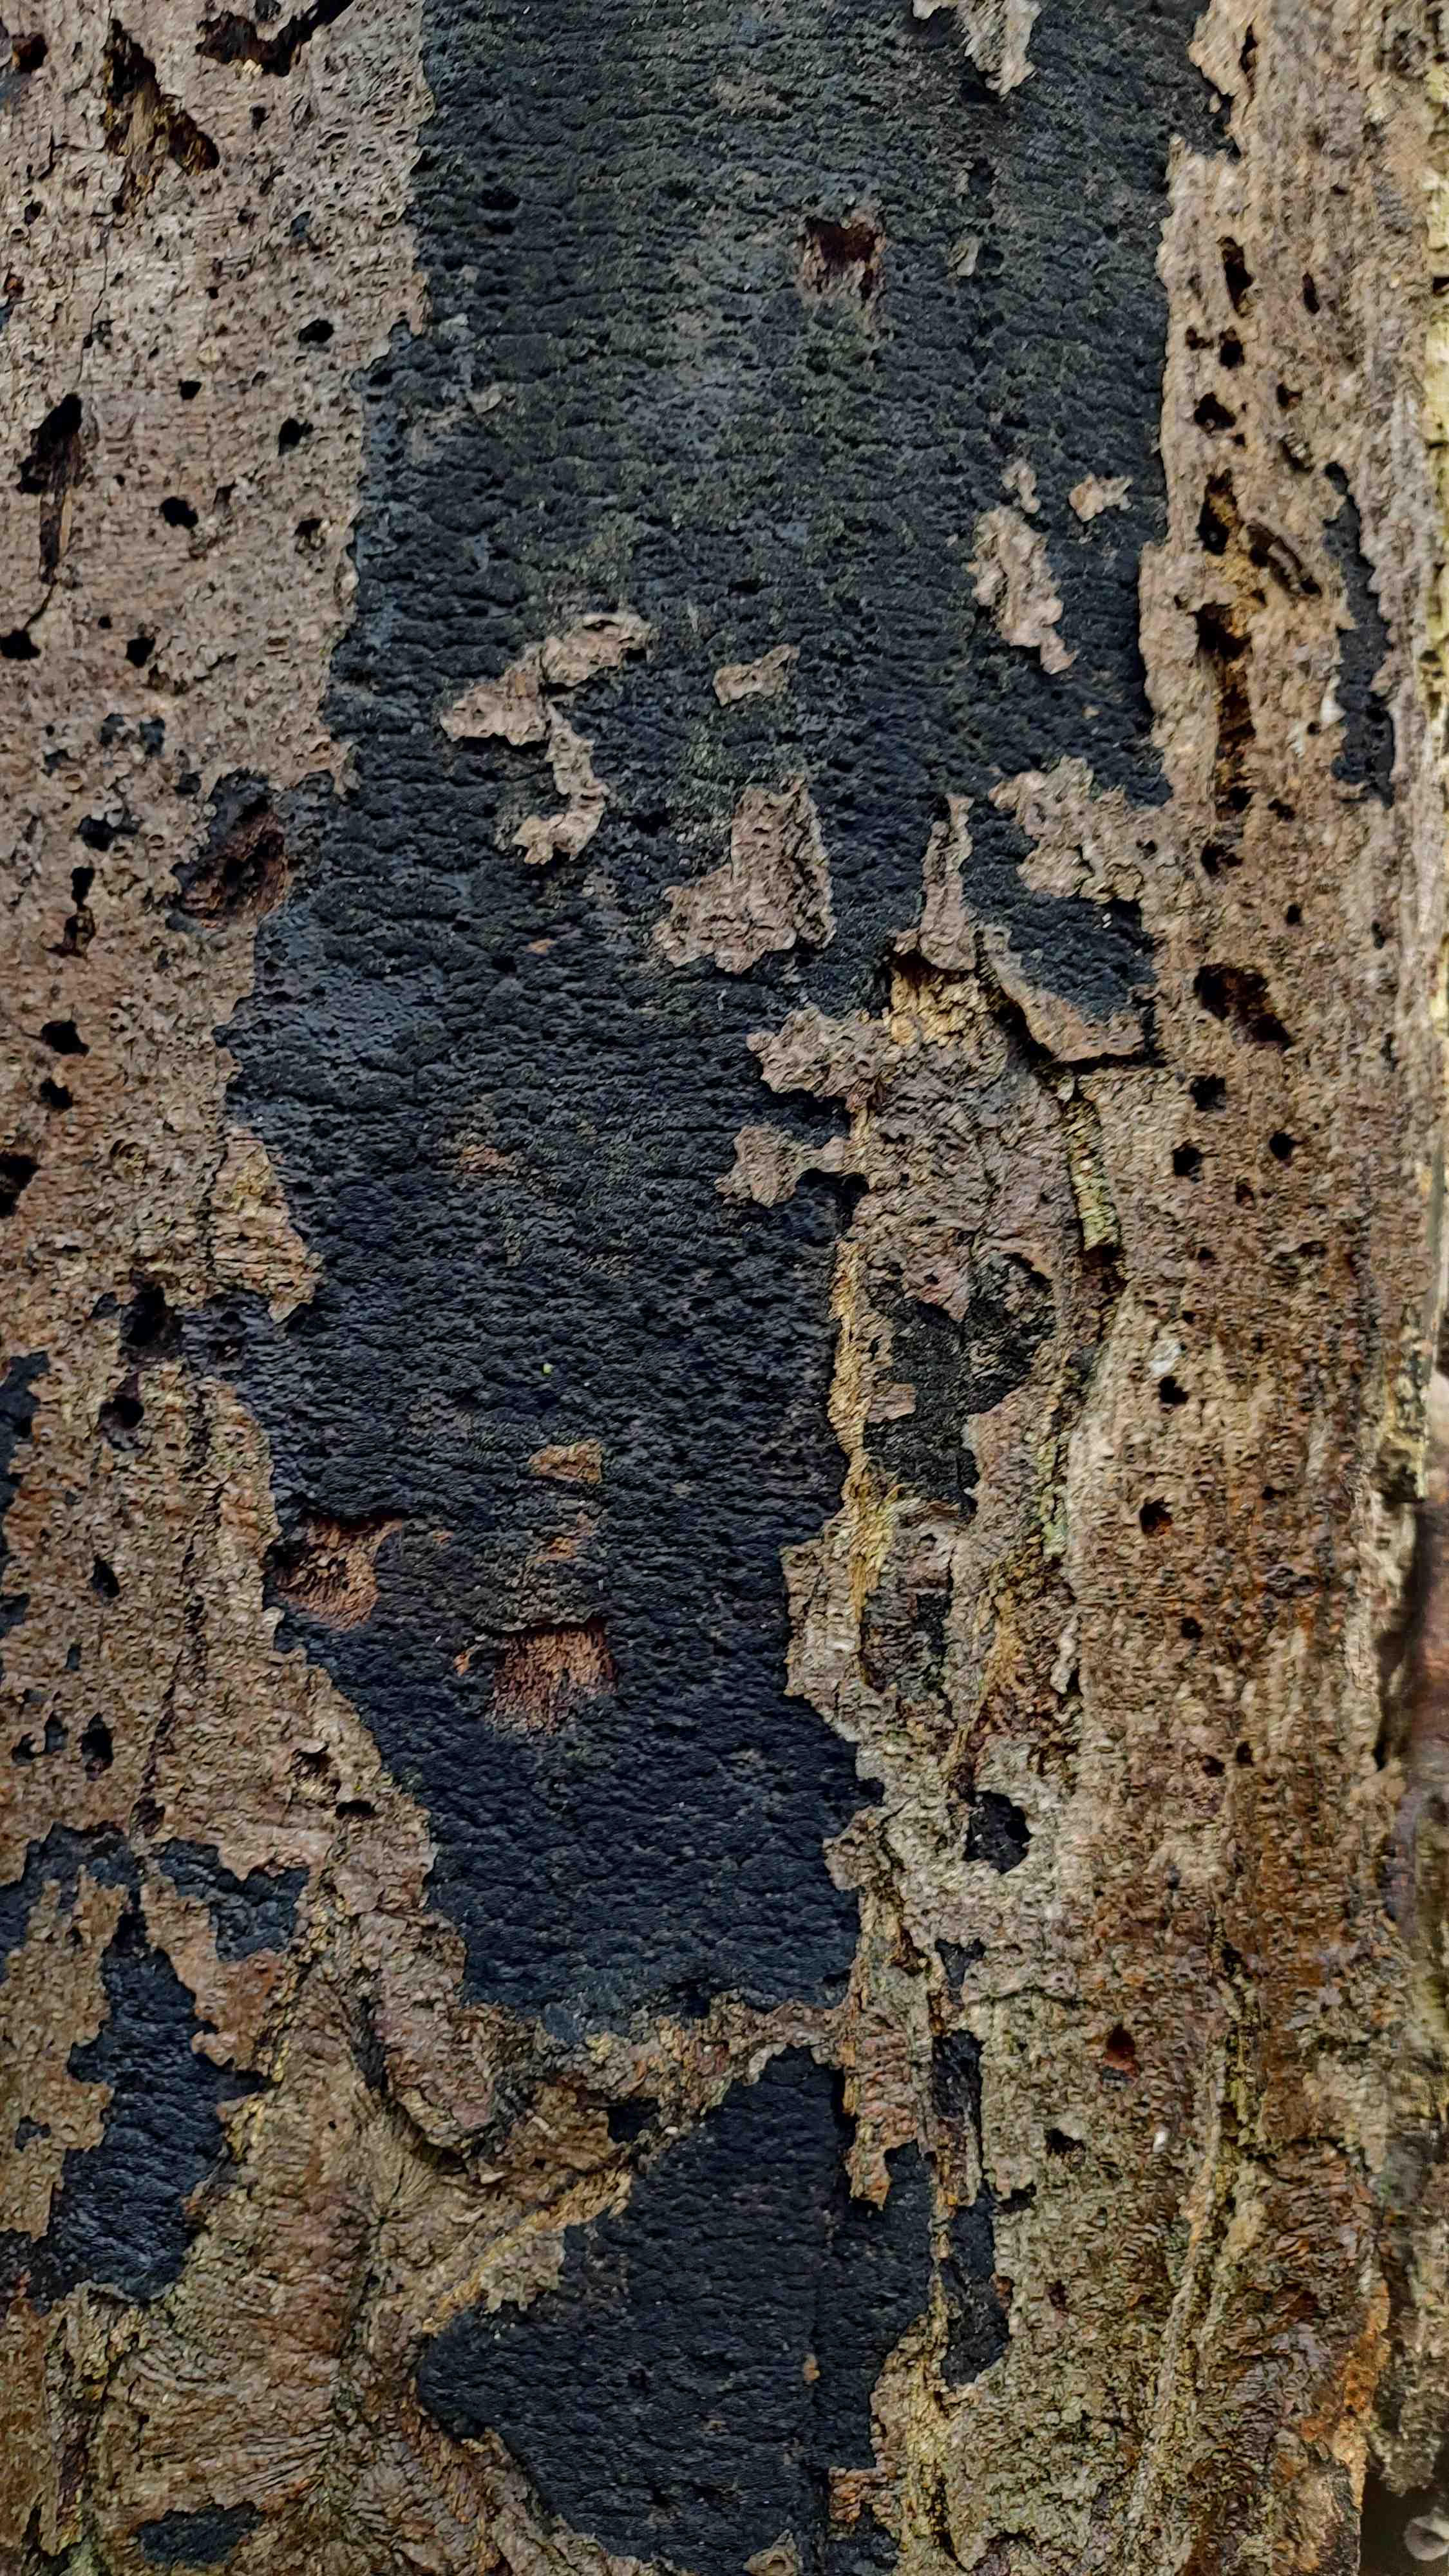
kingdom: Fungi
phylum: Ascomycota
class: Sordariomycetes
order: Xylariales
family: Diatrypaceae
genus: Eutypa
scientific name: Eutypa spinosa
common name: grov kulskorpe
